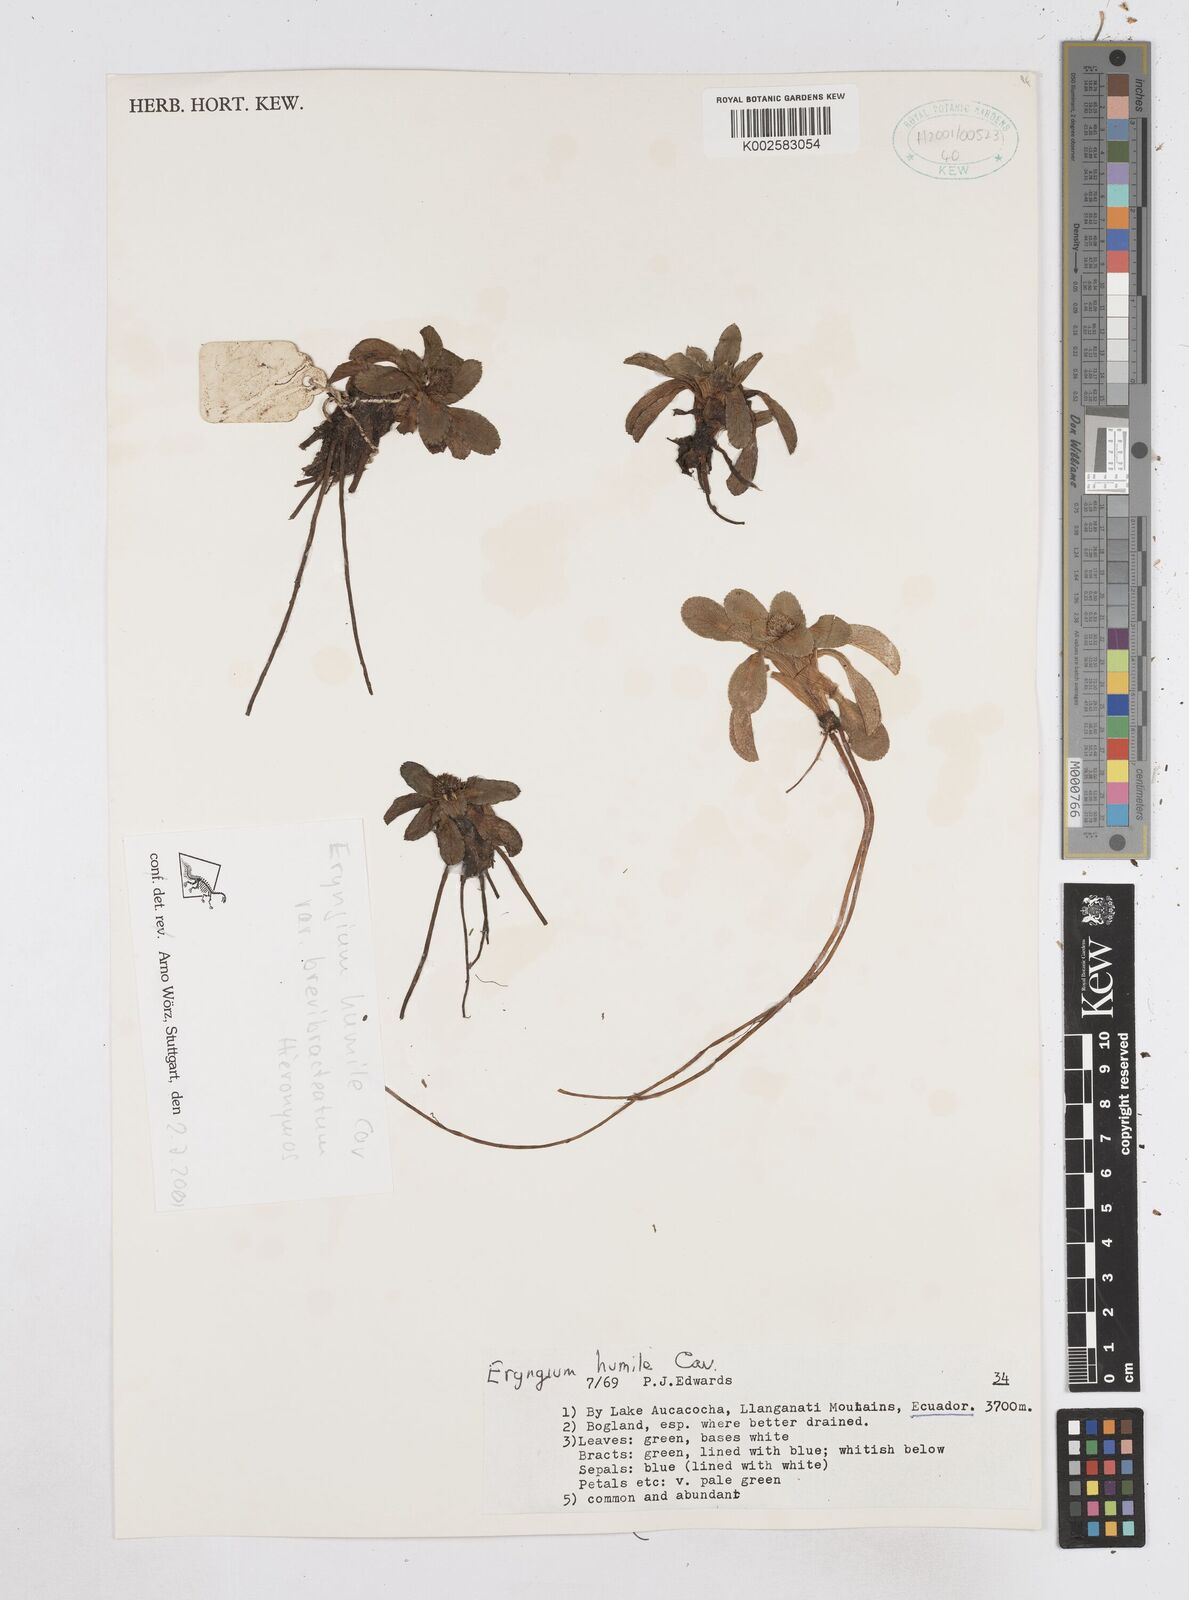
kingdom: Plantae
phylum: Tracheophyta
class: Magnoliopsida
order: Apiales
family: Apiaceae
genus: Eryngium
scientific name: Eryngium humile
